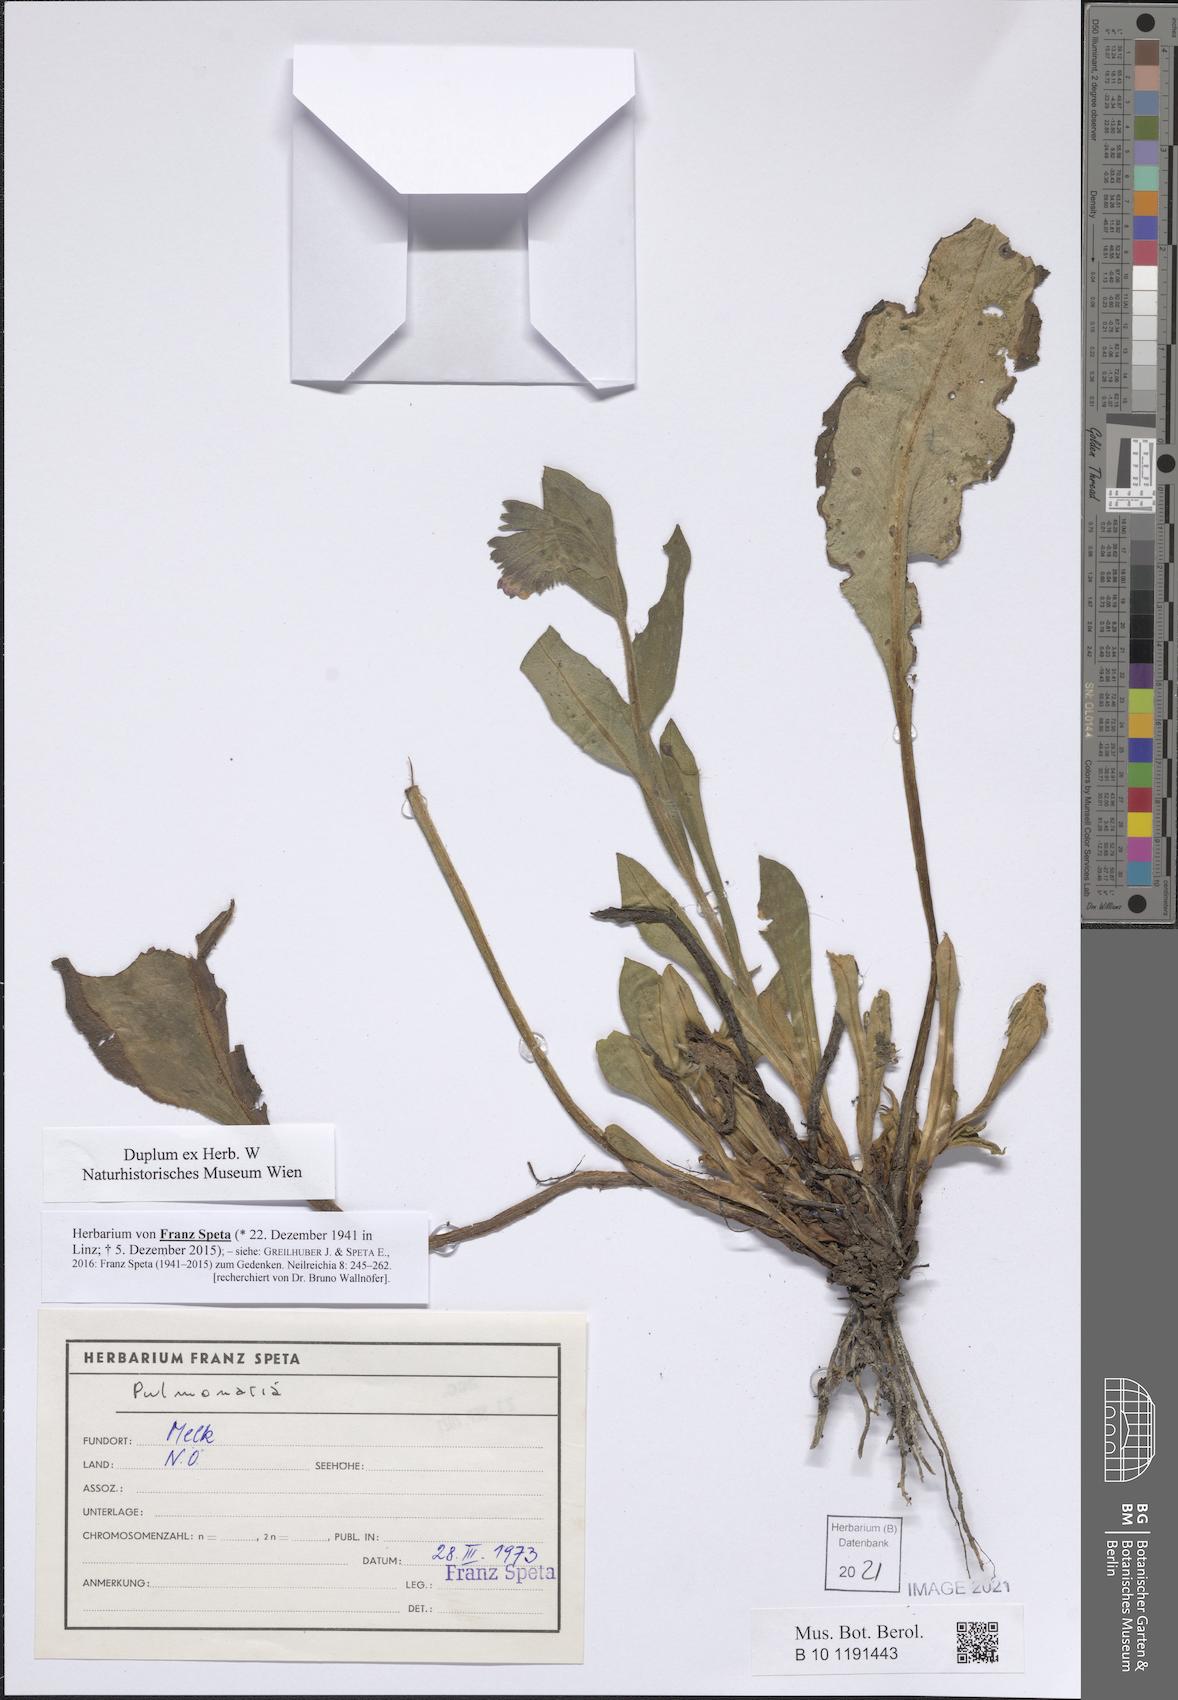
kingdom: Plantae
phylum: Tracheophyta
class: Magnoliopsida
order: Boraginales
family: Boraginaceae
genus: Pulmonaria
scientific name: Pulmonaria
